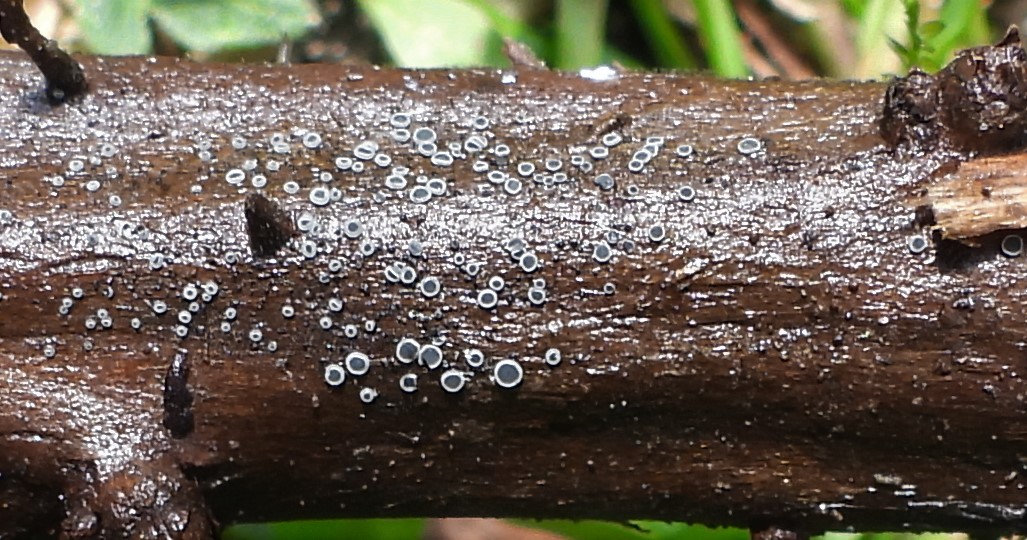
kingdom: Fungi
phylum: Ascomycota
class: Leotiomycetes
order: Helotiales
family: Mollisiaceae
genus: Mollisia
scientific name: Mollisia
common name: gråskive
